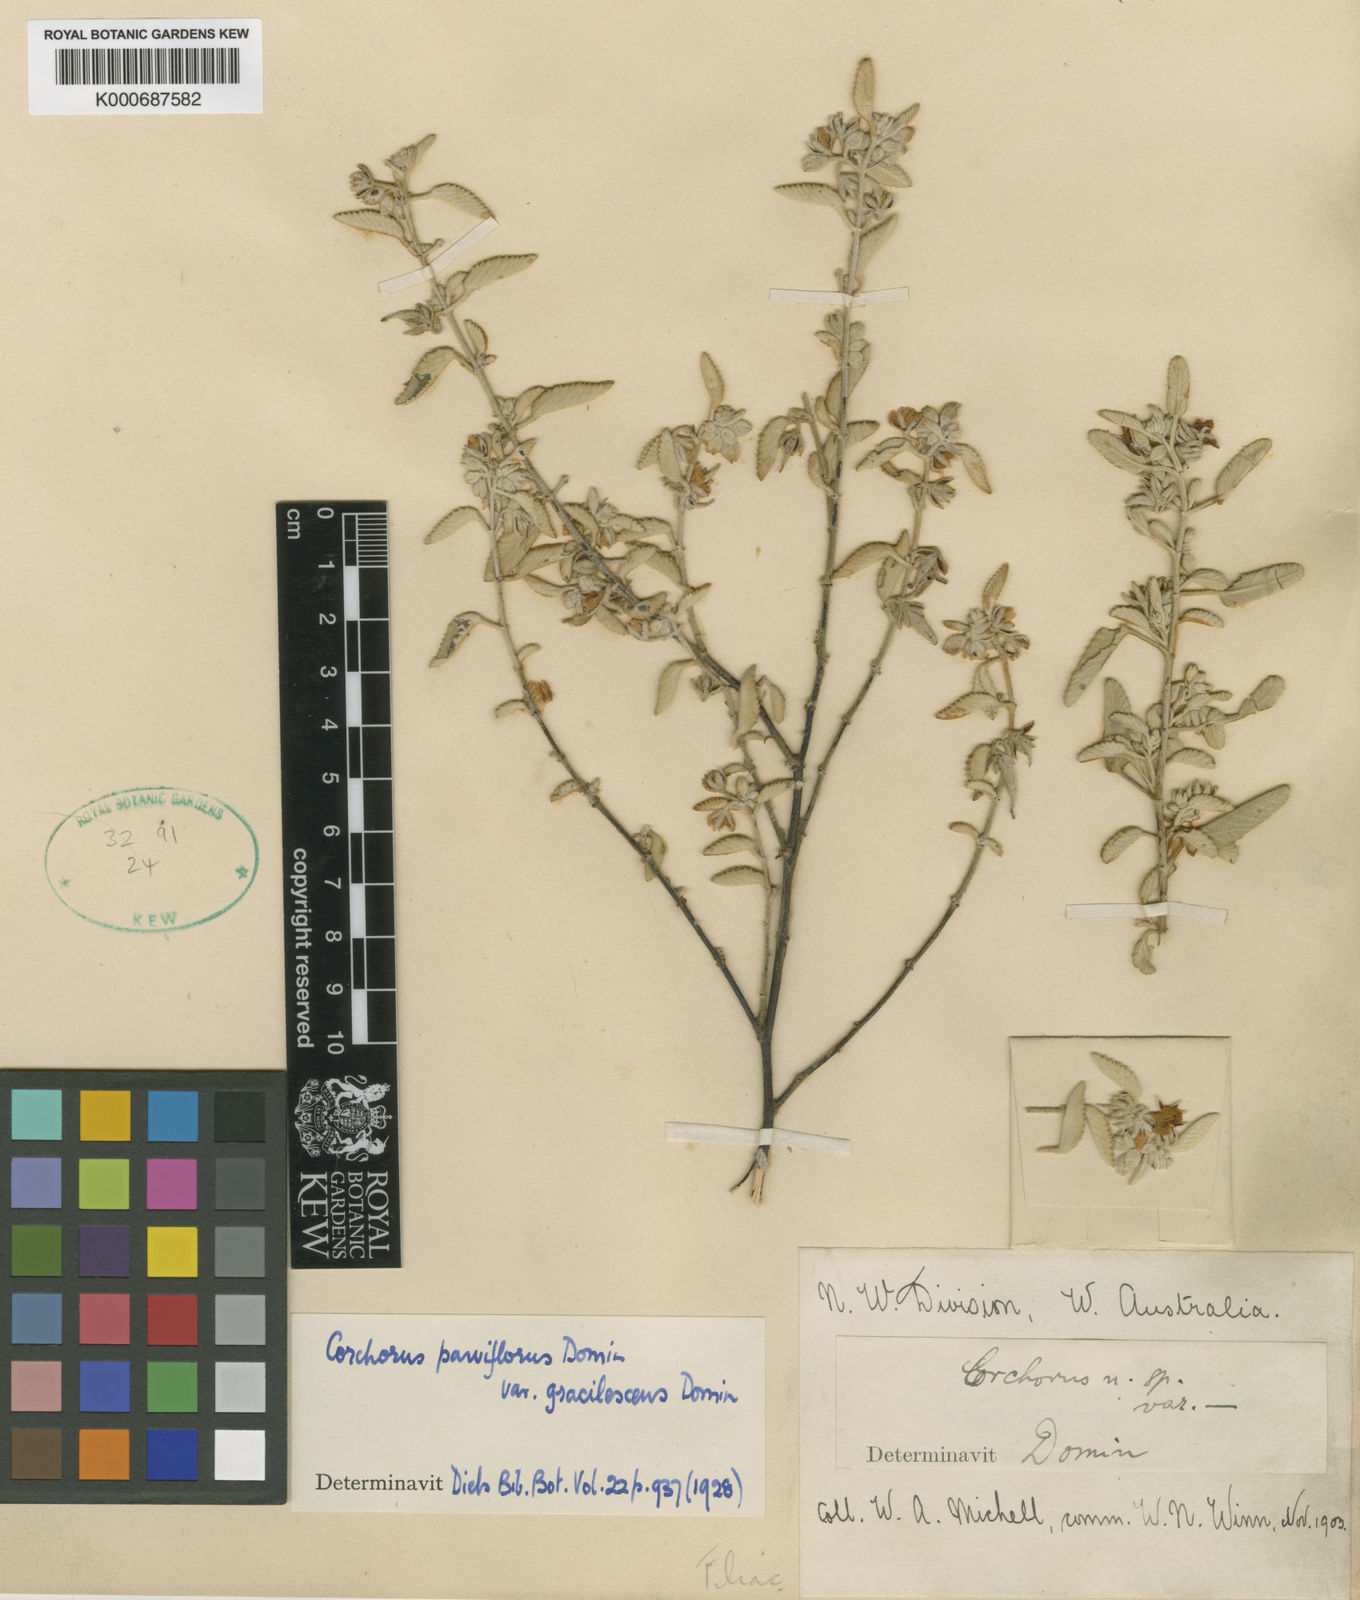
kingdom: Plantae
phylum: Tracheophyta
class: Magnoliopsida
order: Malvales
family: Malvaceae
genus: Corchorus
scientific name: Corchorus parviflorus
